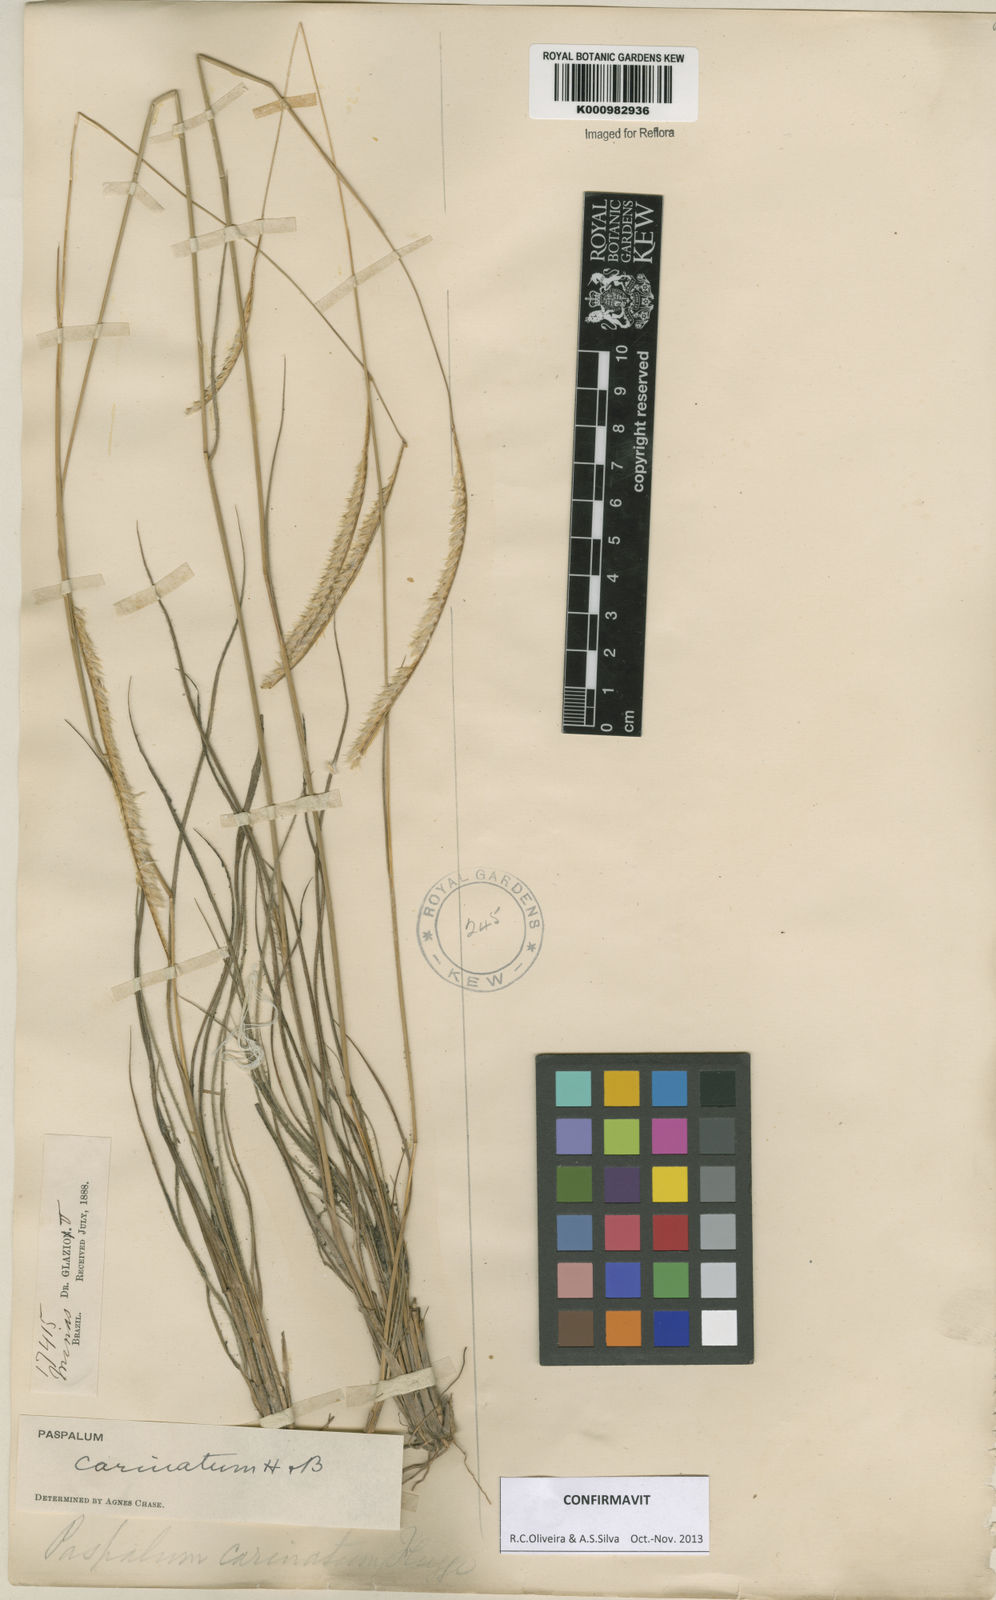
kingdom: Plantae
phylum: Tracheophyta
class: Liliopsida
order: Poales
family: Poaceae
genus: Paspalum
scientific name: Paspalum
